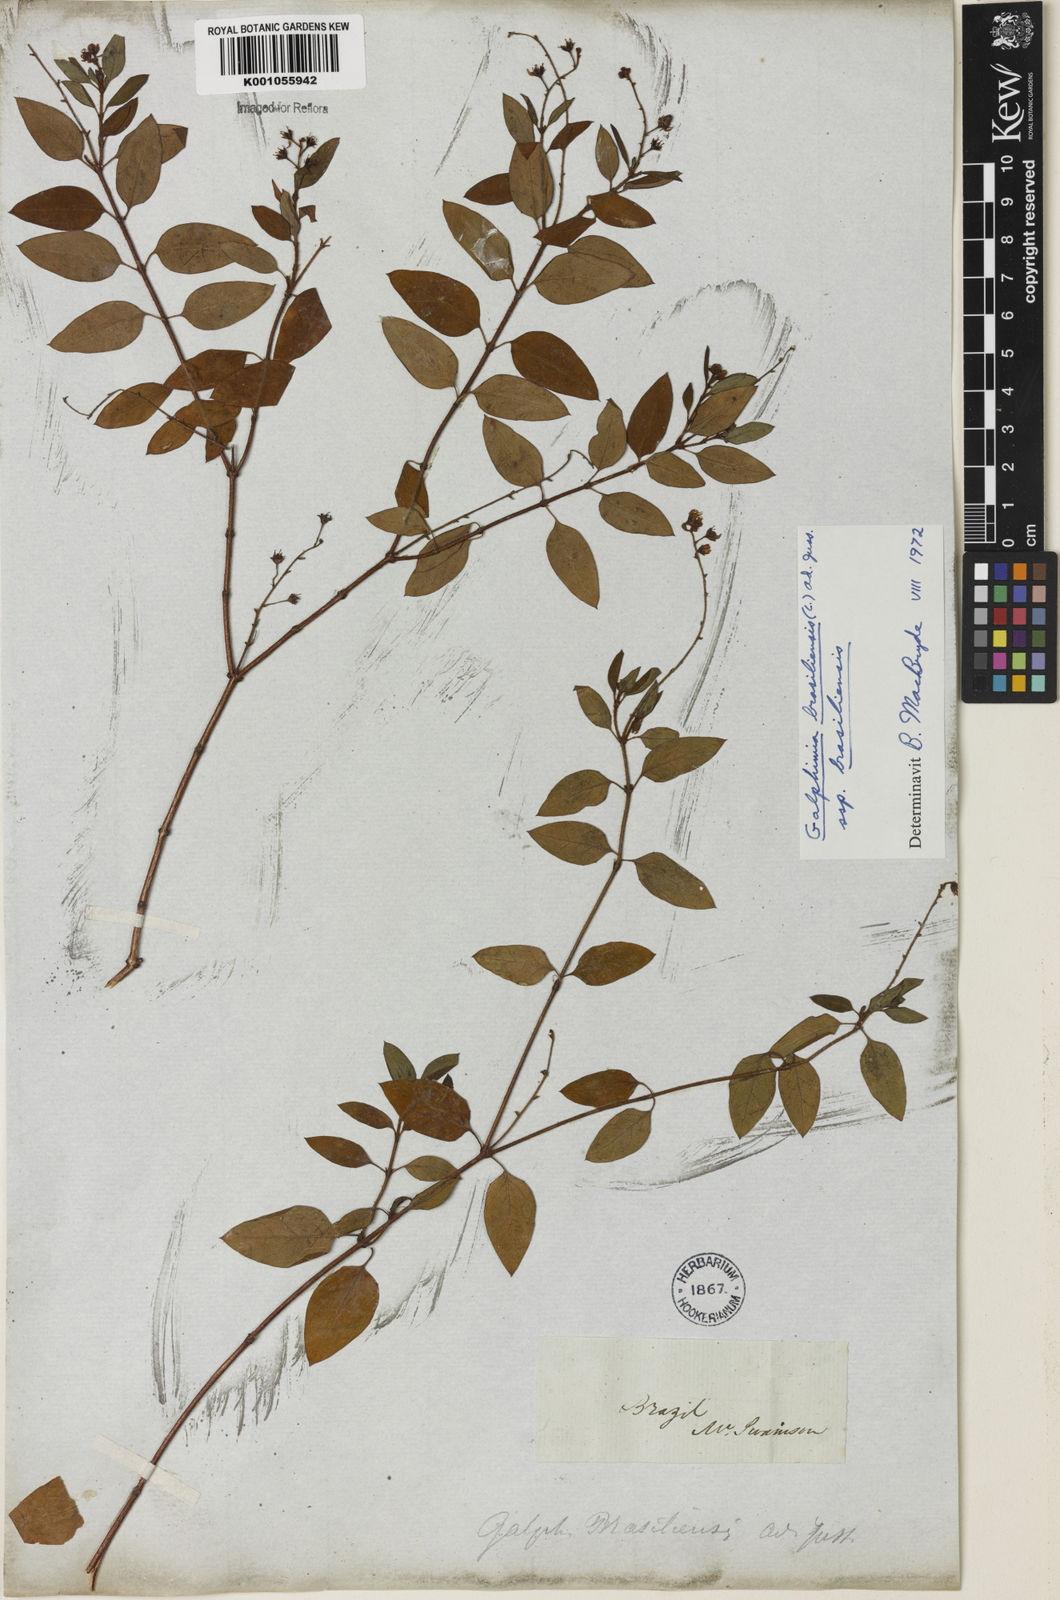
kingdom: Plantae
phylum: Tracheophyta
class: Magnoliopsida
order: Malpighiales
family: Malpighiaceae
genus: Galphimia
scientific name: Galphimia brasiliensis
